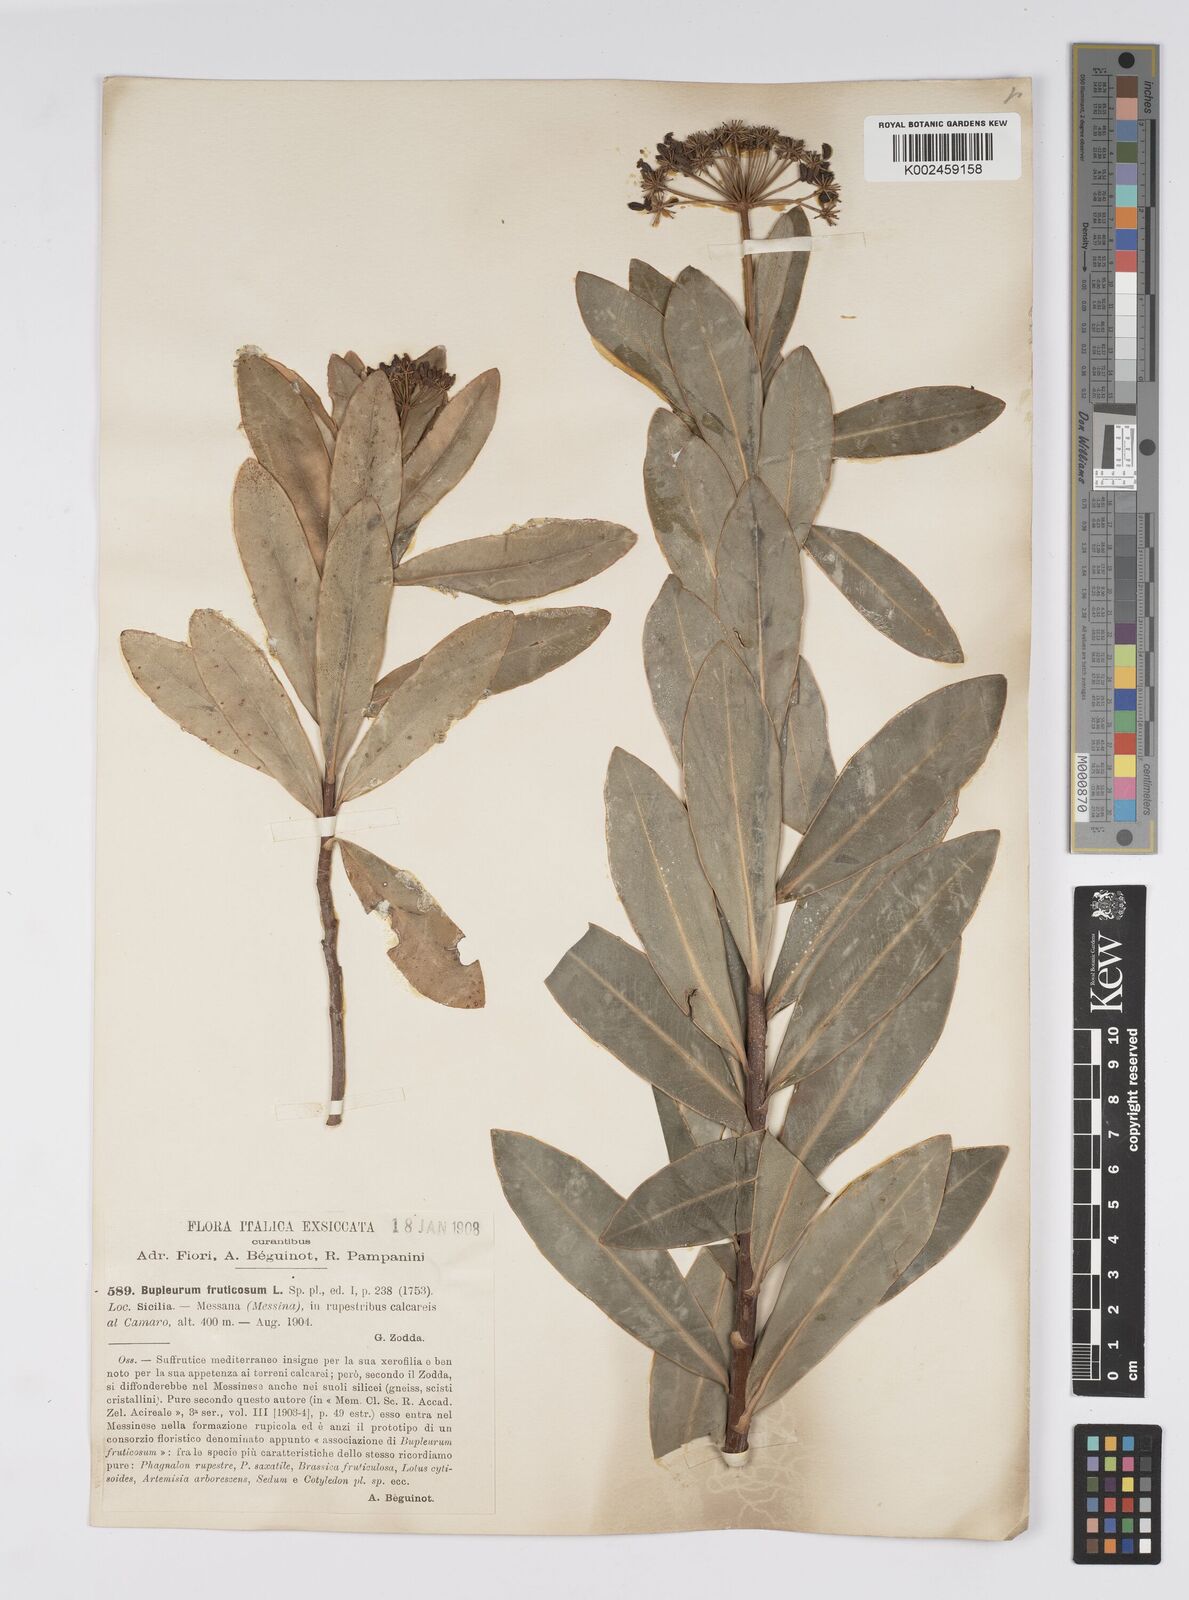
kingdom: Plantae
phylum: Tracheophyta
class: Magnoliopsida
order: Apiales
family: Apiaceae
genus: Bupleurum
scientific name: Bupleurum fruticosum
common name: Shrubby hare's-ear
